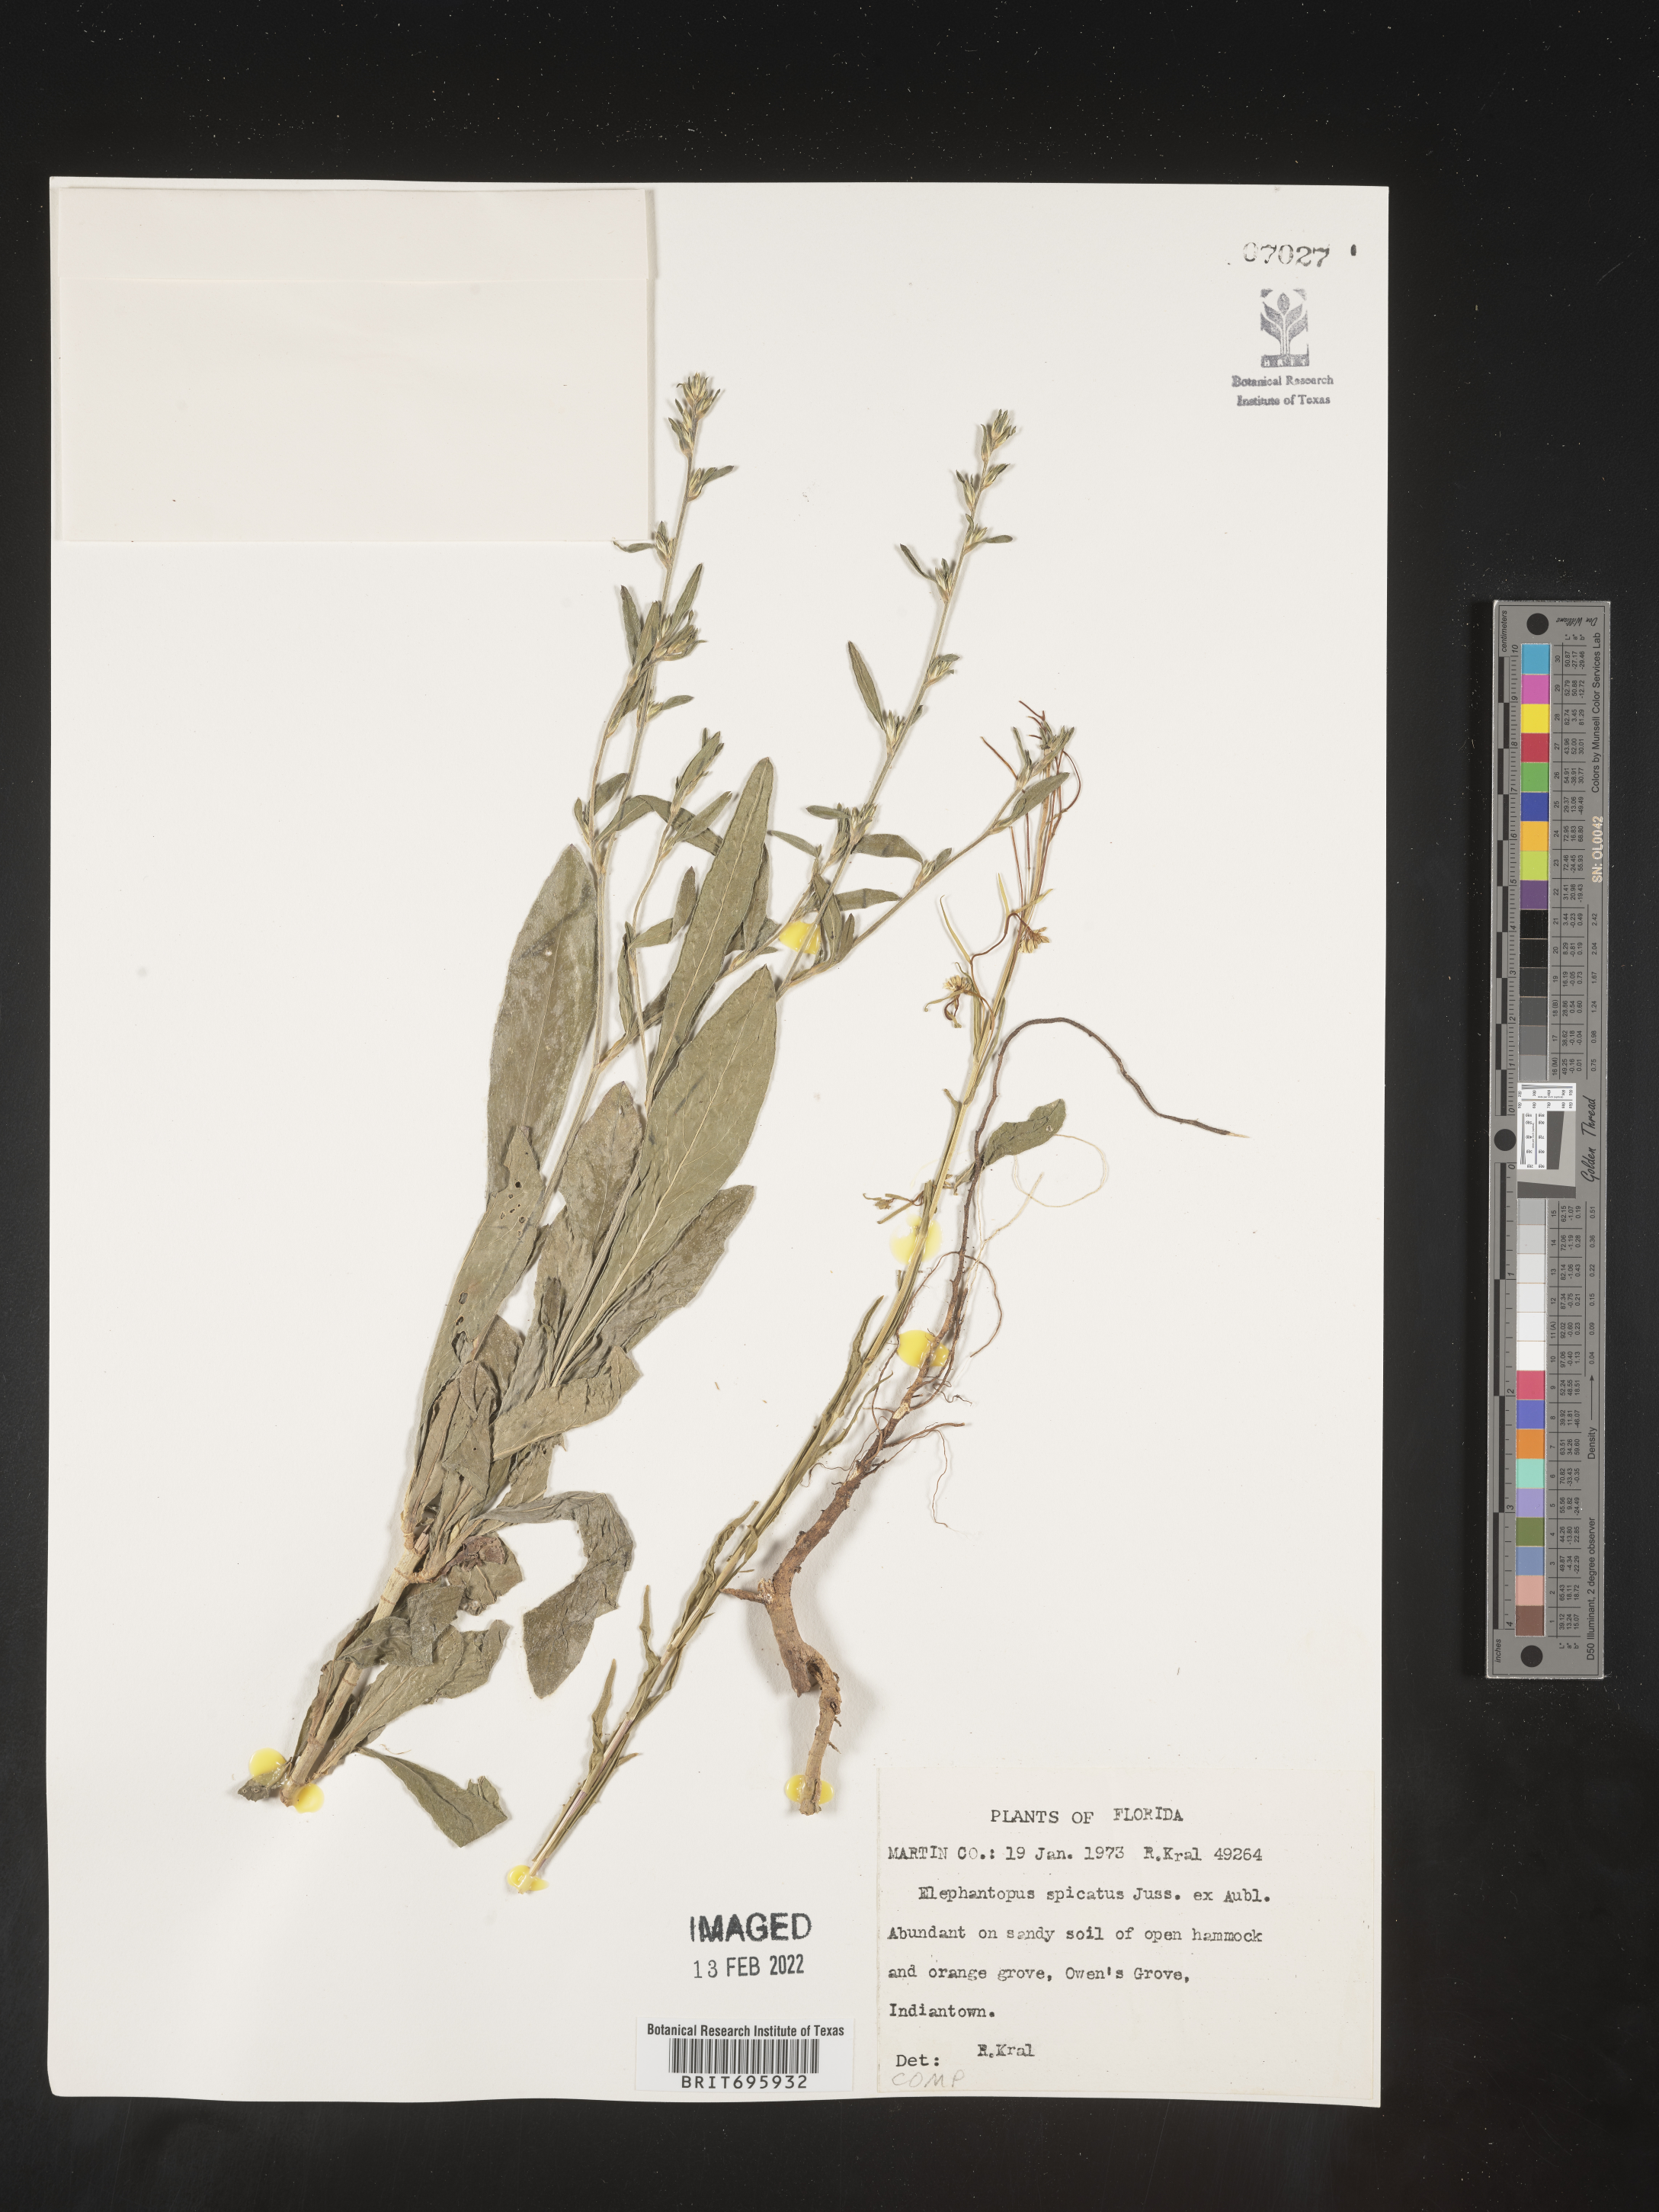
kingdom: Plantae
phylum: Tracheophyta
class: Magnoliopsida
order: Asterales
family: Asteraceae
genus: Elephantopus
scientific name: Elephantopus
